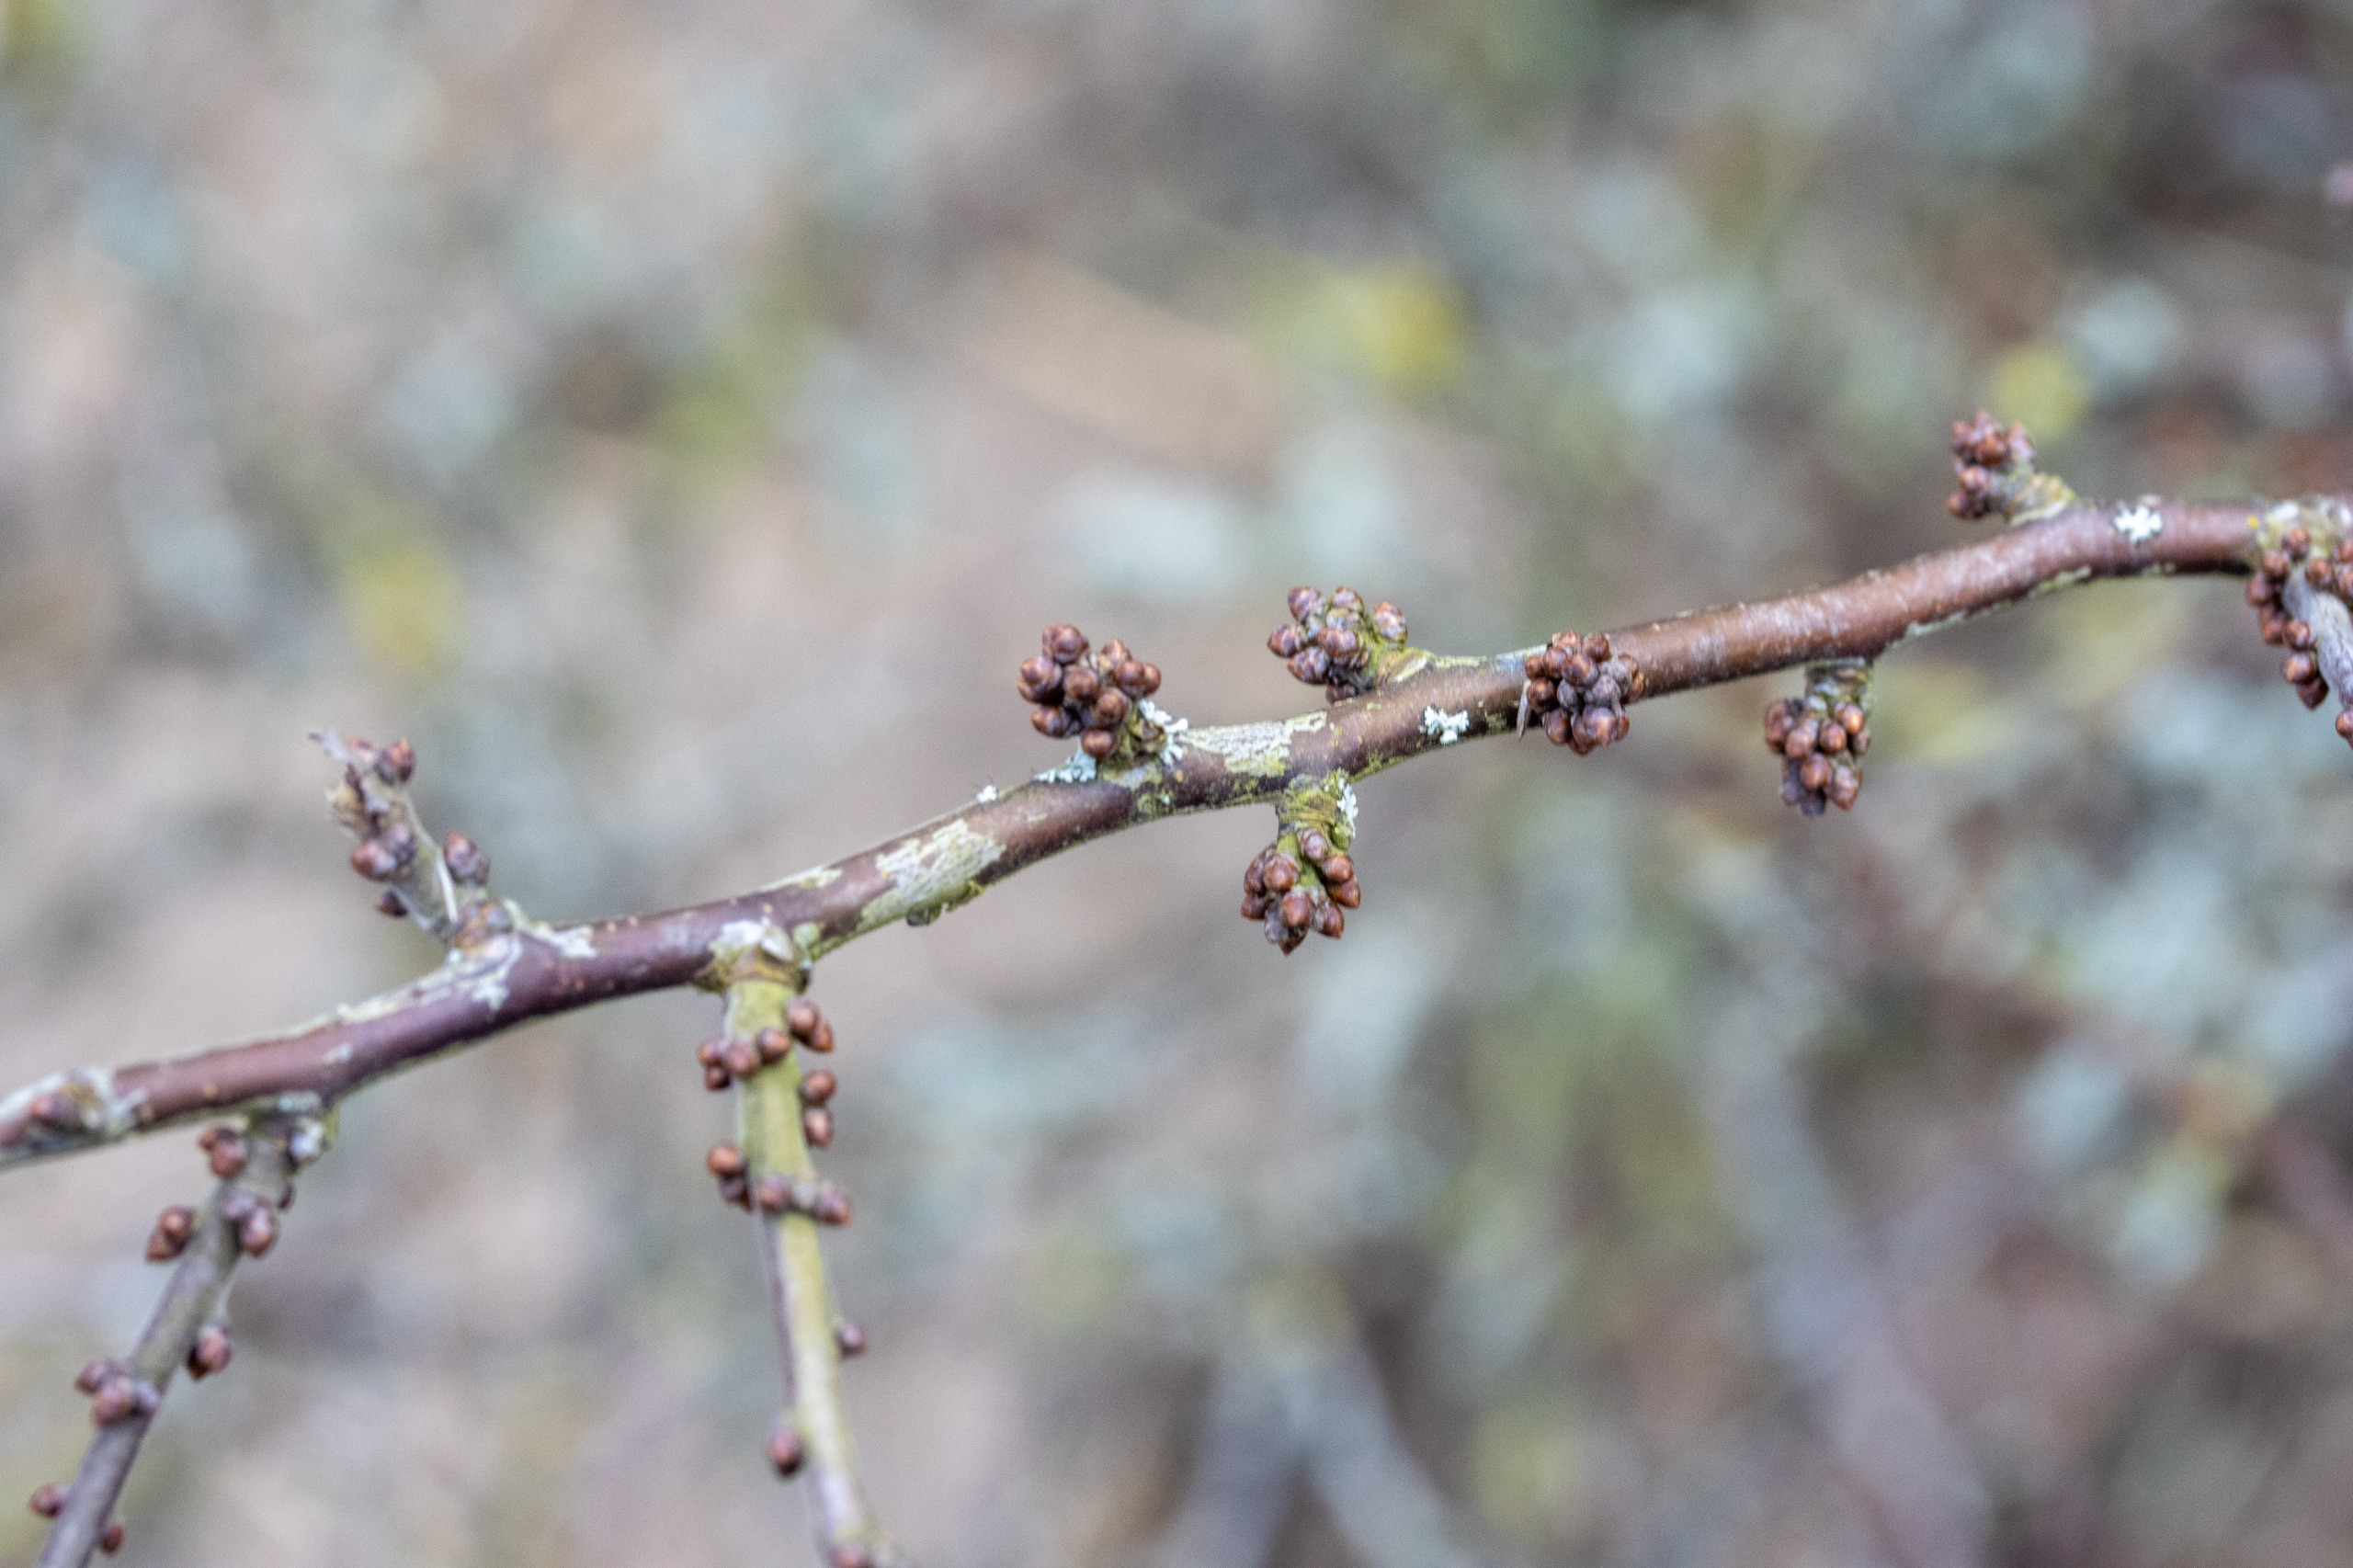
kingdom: Plantae
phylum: Tracheophyta
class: Magnoliopsida
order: Rosales
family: Rosaceae
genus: Prunus
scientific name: Prunus spinosa
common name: Slåen
